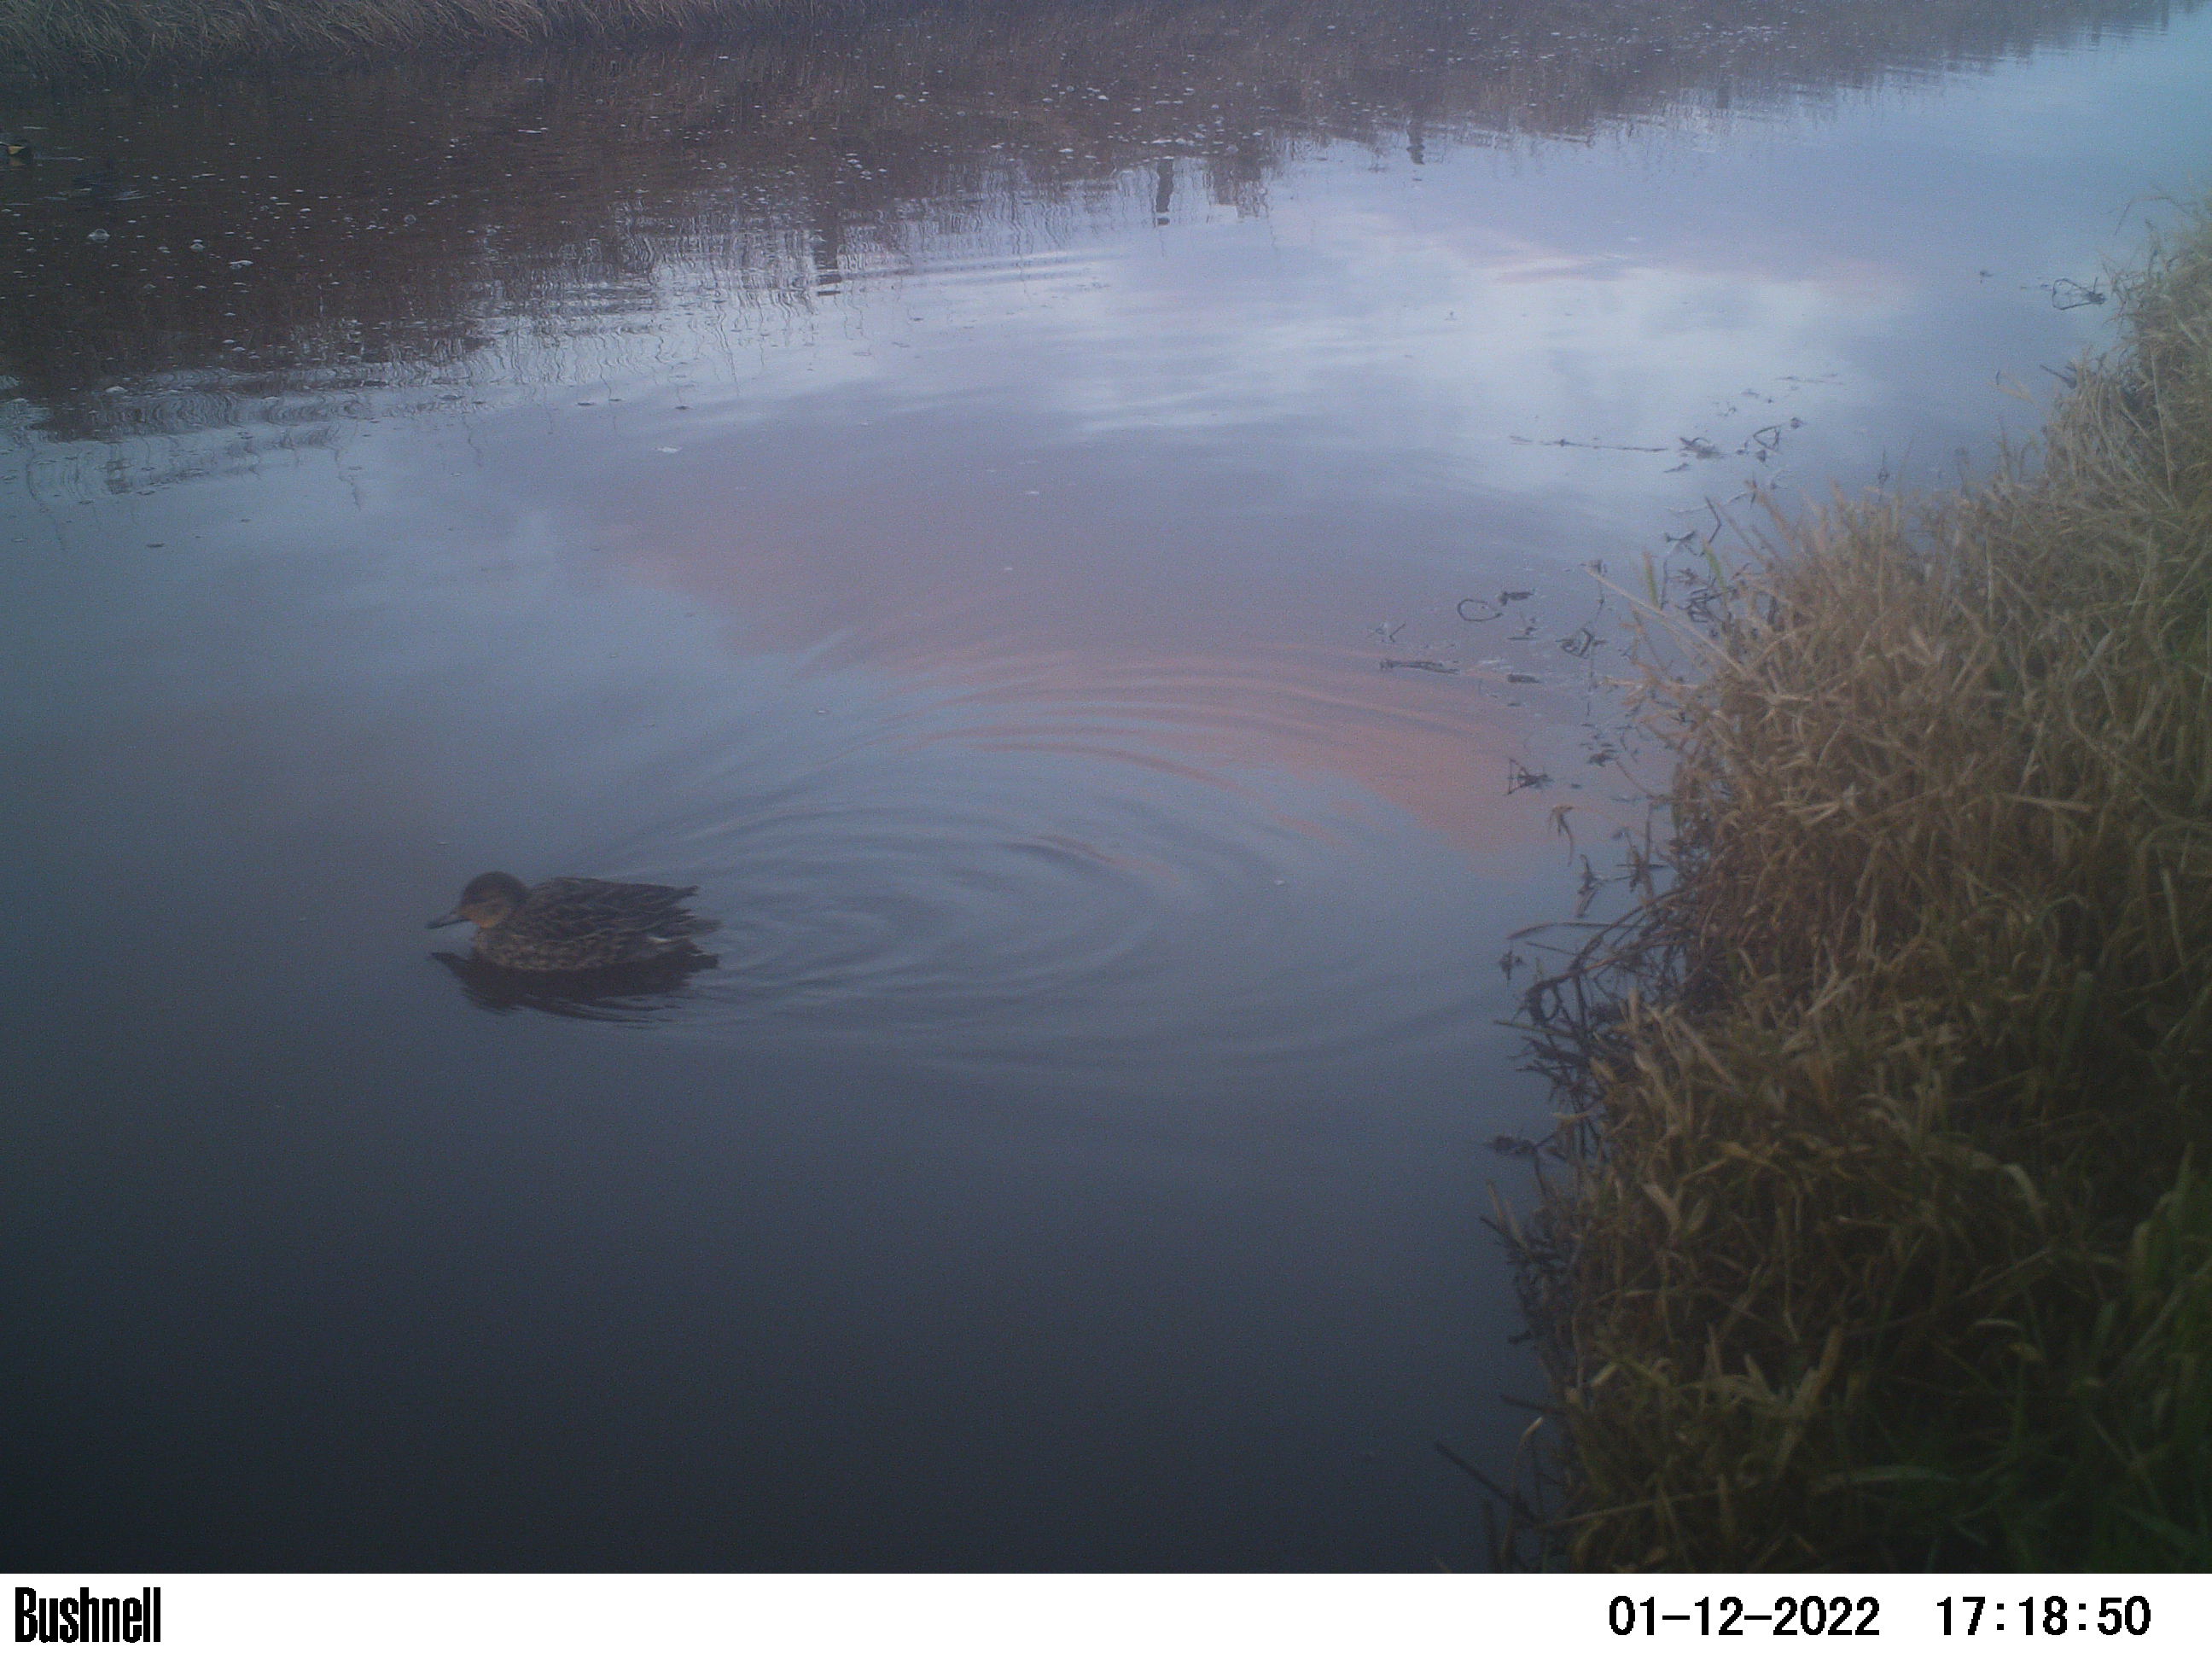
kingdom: Animalia
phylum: Chordata
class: Aves
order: Anseriformes
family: Anatidae
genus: Anas
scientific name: Anas
